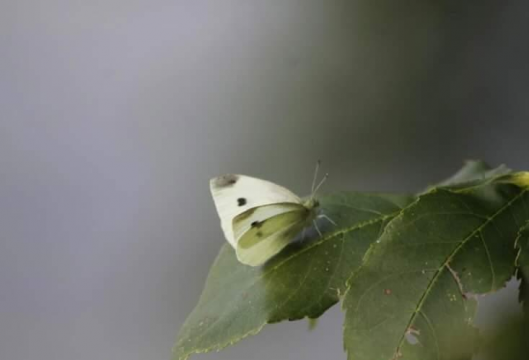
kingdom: Animalia
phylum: Arthropoda
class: Insecta
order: Lepidoptera
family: Pieridae
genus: Pieris
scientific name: Pieris rapae
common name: Cabbage White
